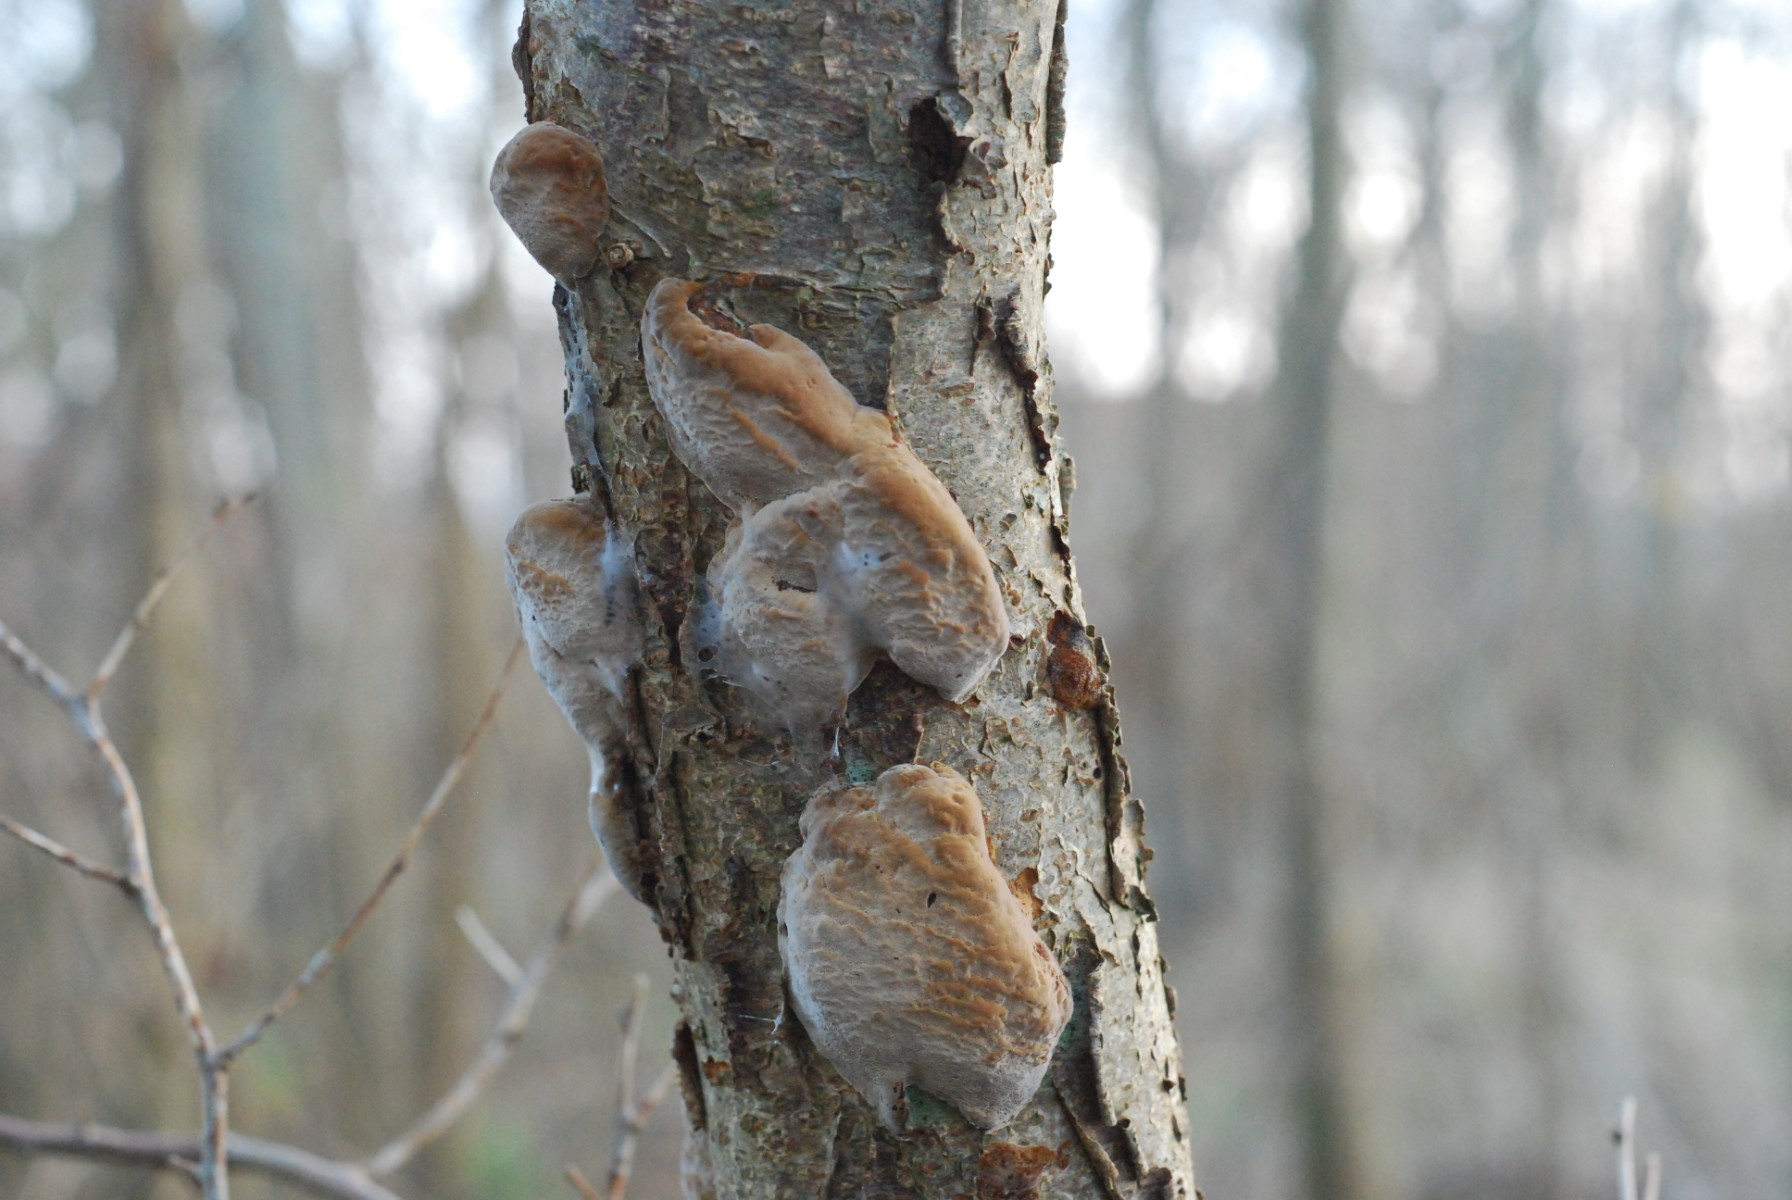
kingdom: Fungi
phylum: Basidiomycota
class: Agaricomycetes
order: Hymenochaetales
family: Hymenochaetaceae
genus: Phellinus
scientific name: Phellinus pomaceus
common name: blomme-ildporesvamp
